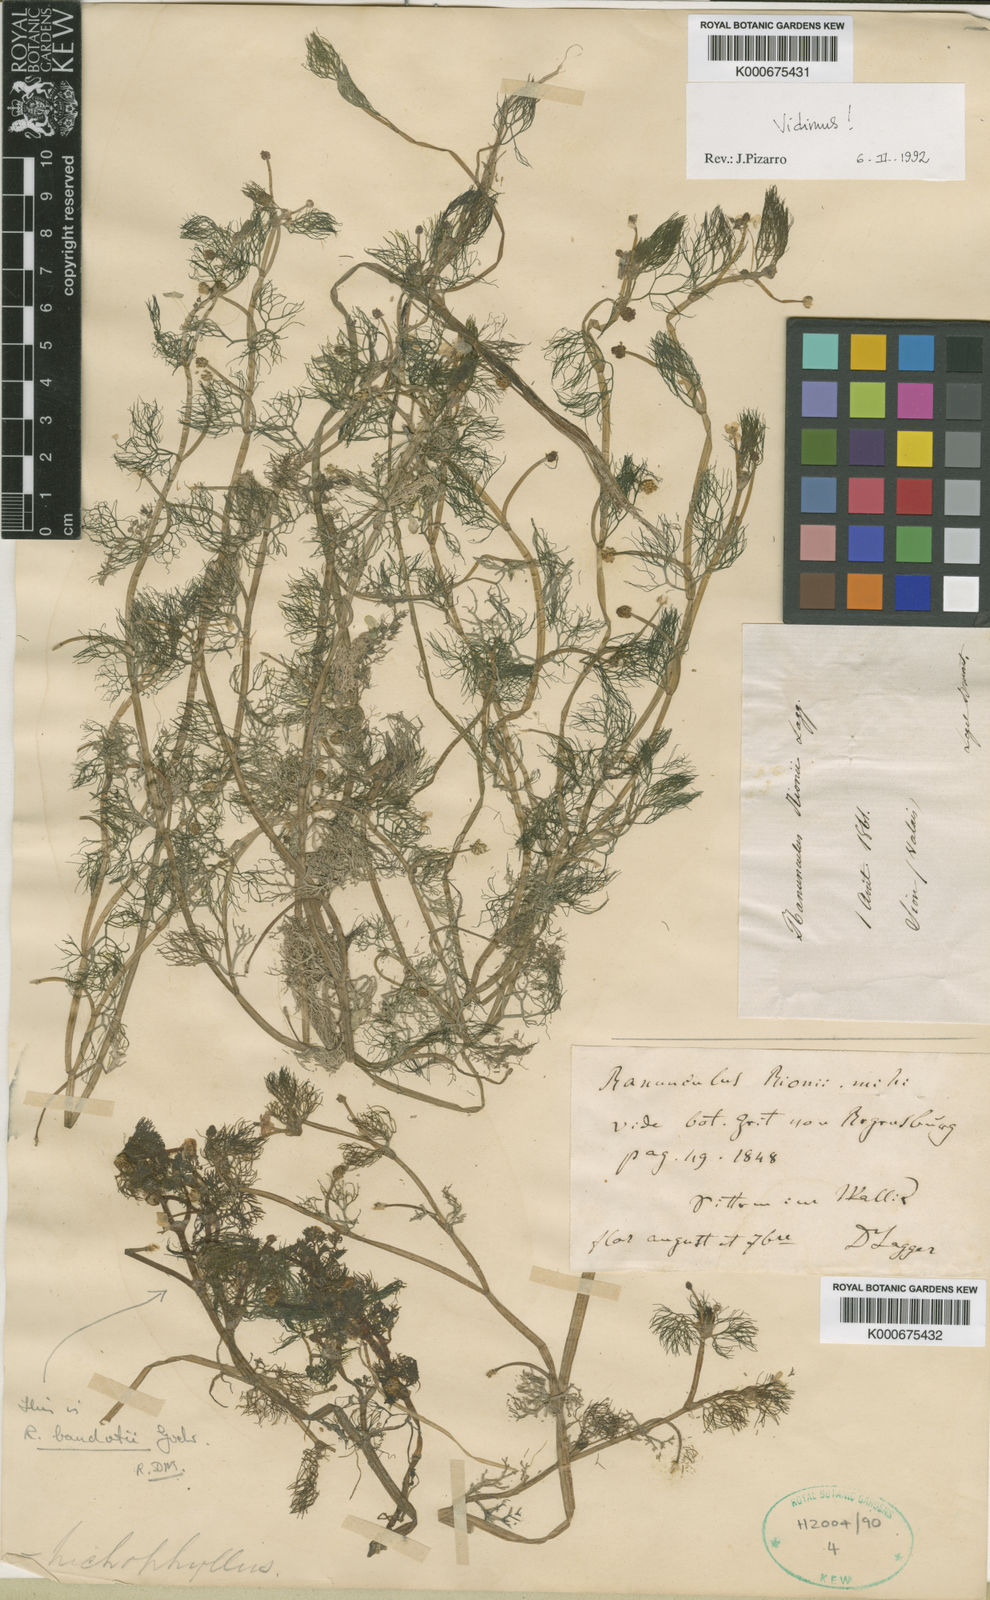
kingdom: Plantae
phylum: Tracheophyta
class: Magnoliopsida
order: Ranunculales
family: Ranunculaceae
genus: Ranunculus
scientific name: Ranunculus rionii
